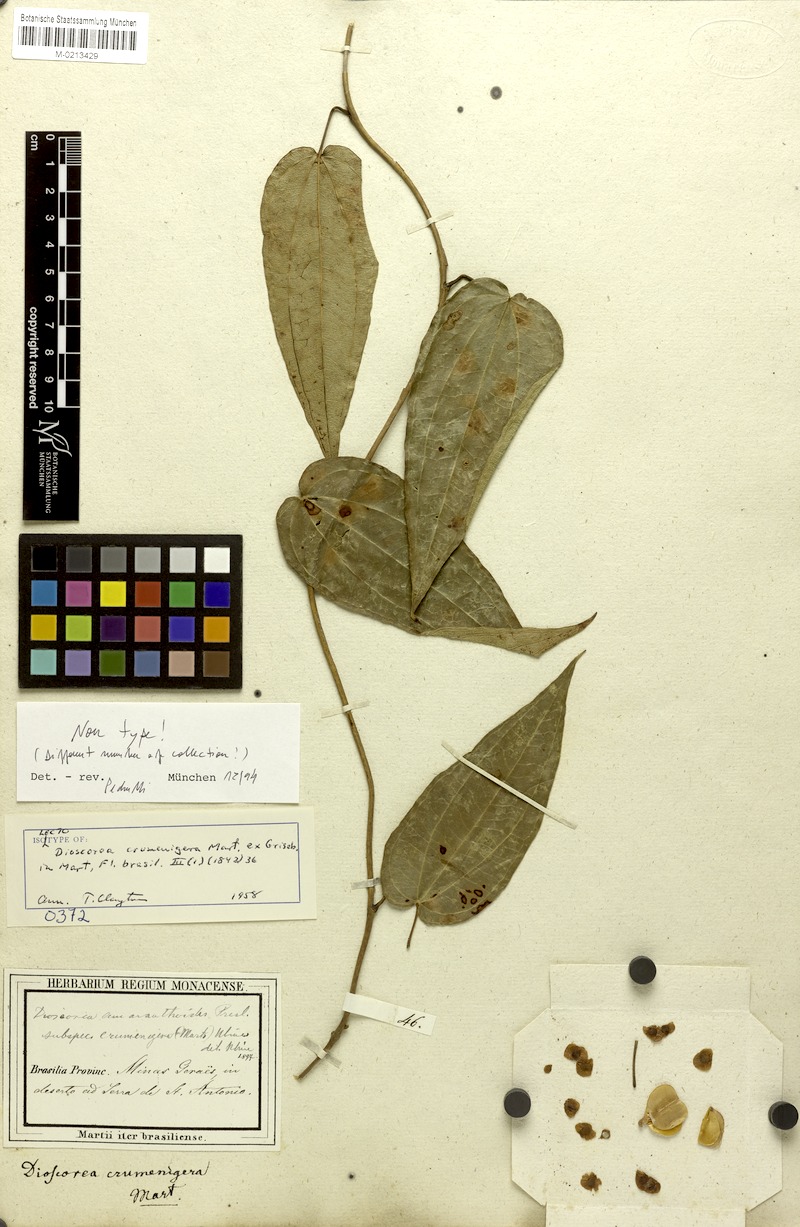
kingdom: Plantae
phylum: Tracheophyta
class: Liliopsida
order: Dioscoreales
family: Dioscoreaceae
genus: Dioscorea
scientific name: Dioscorea amaranthoides
